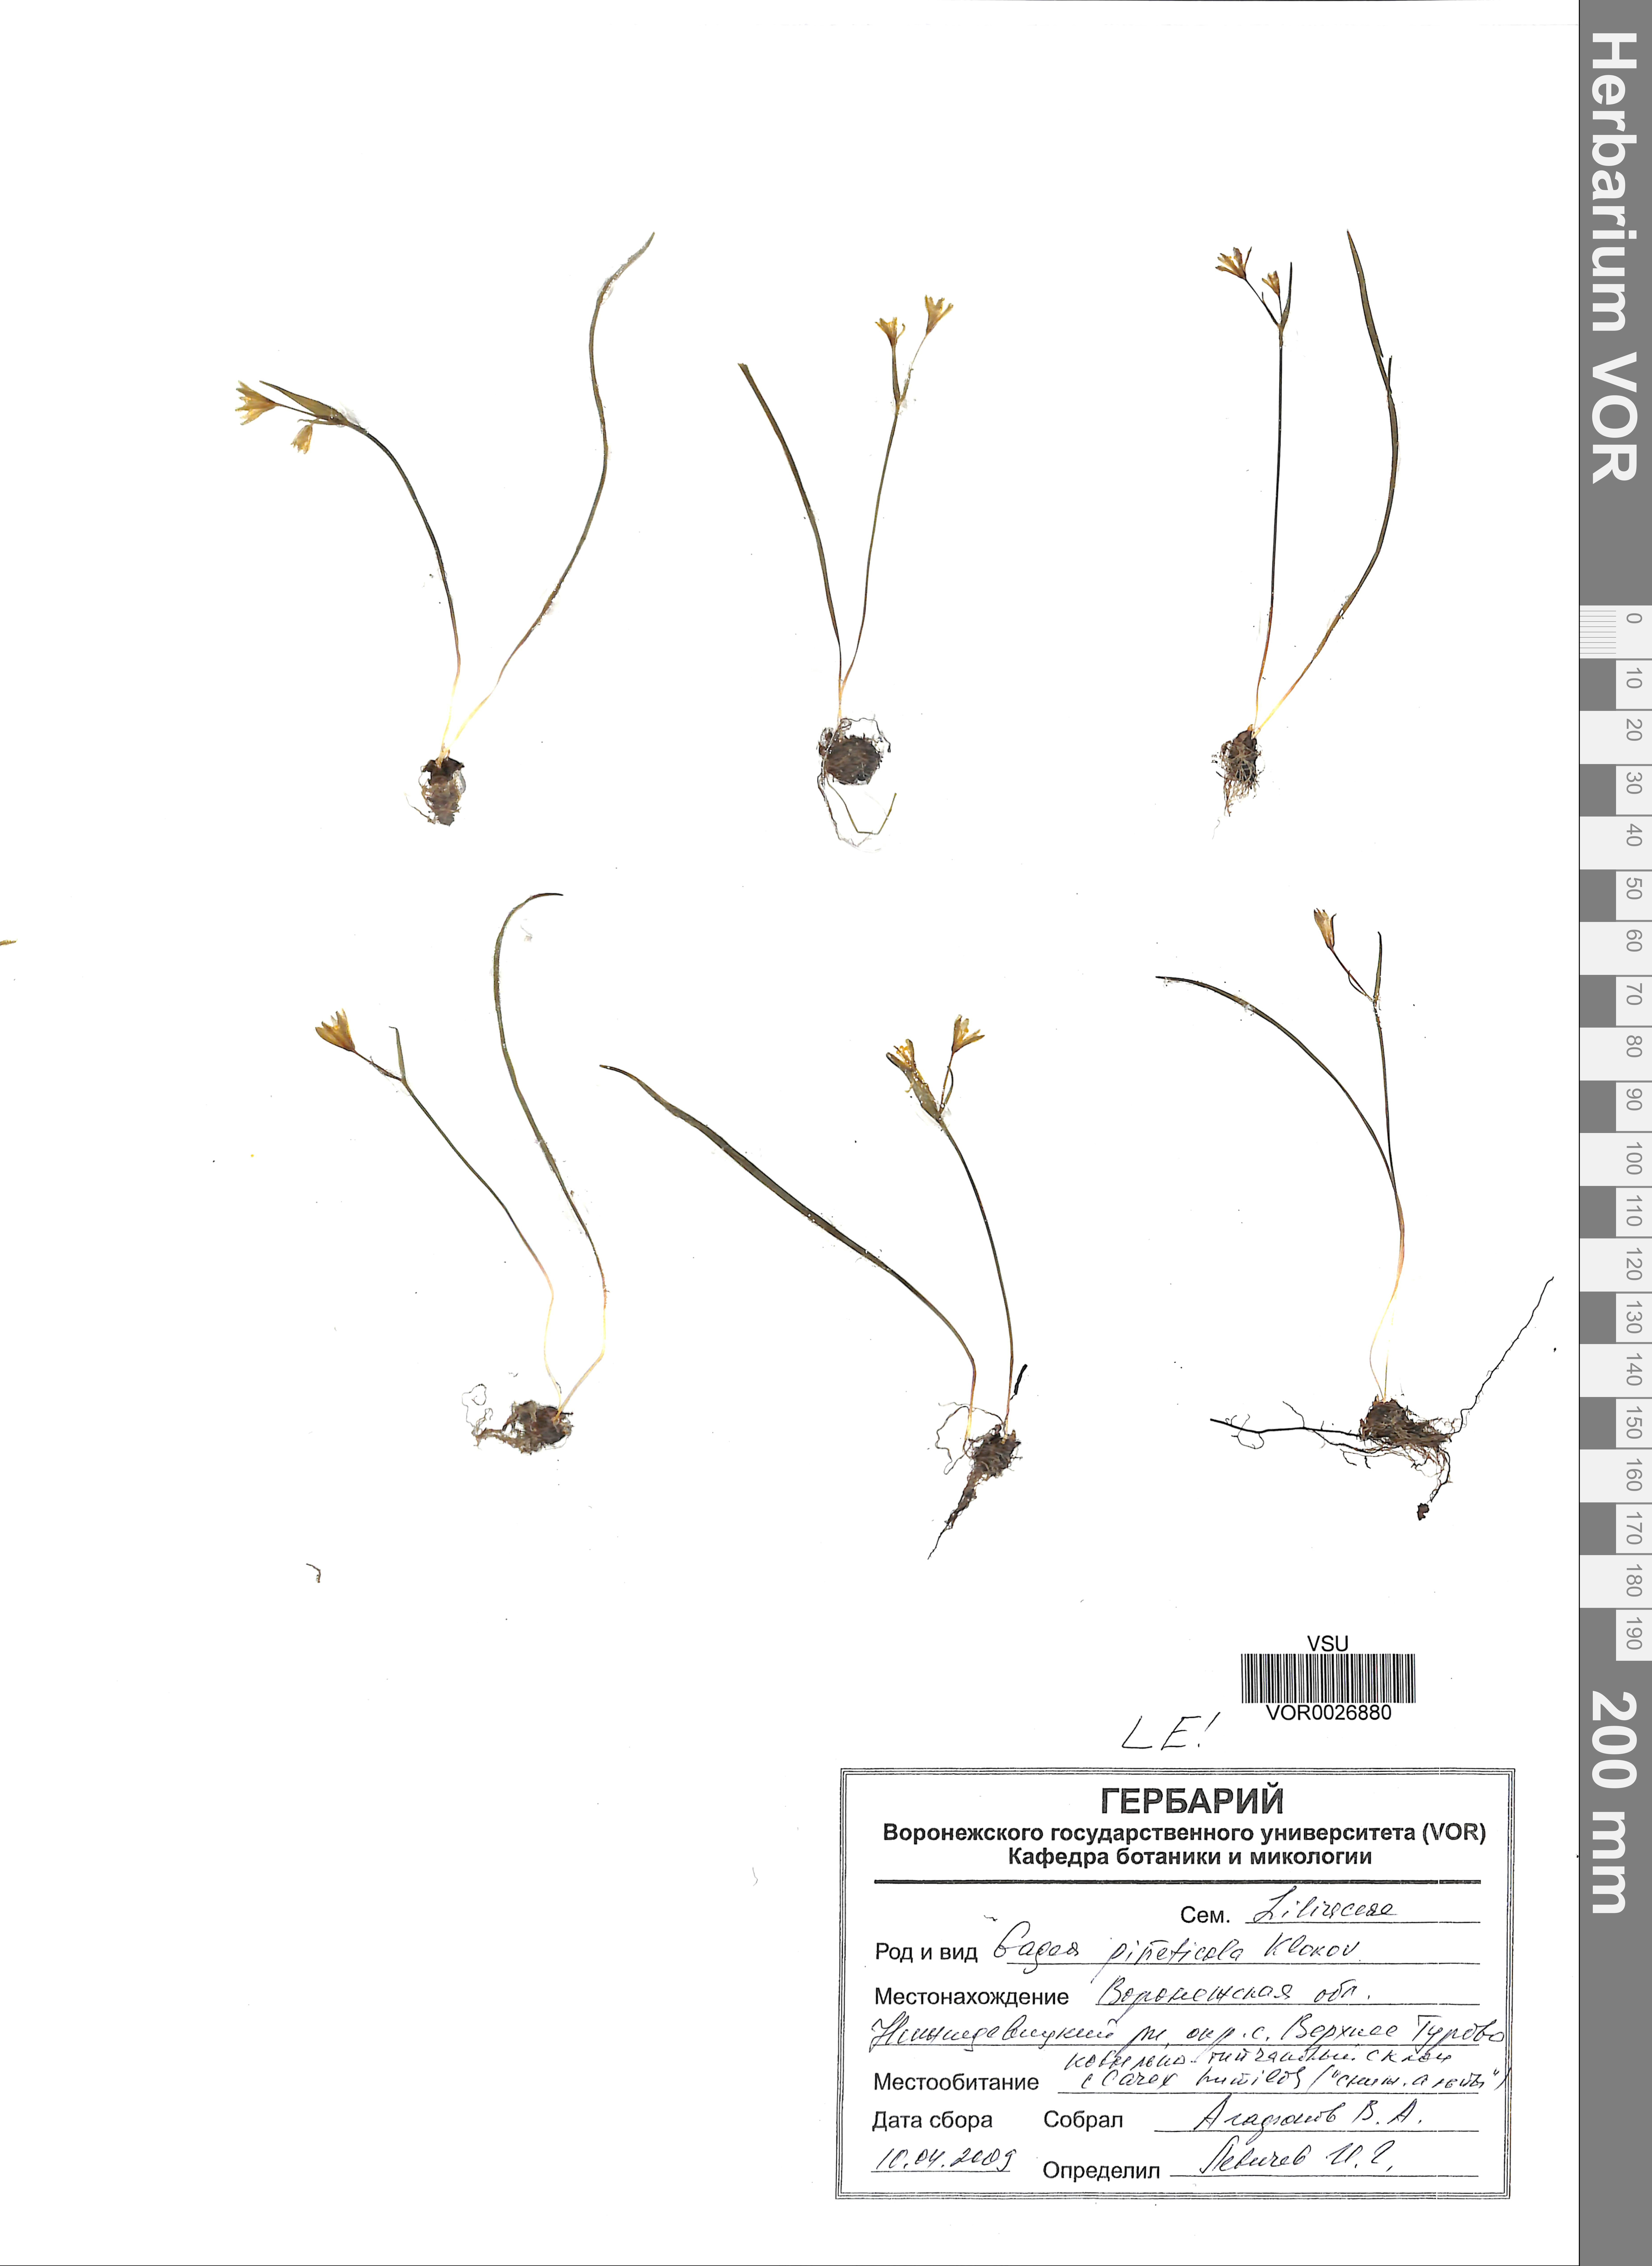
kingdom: Plantae
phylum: Tracheophyta
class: Liliopsida
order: Liliales
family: Liliaceae
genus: Gagea
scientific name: Gagea pusilla
